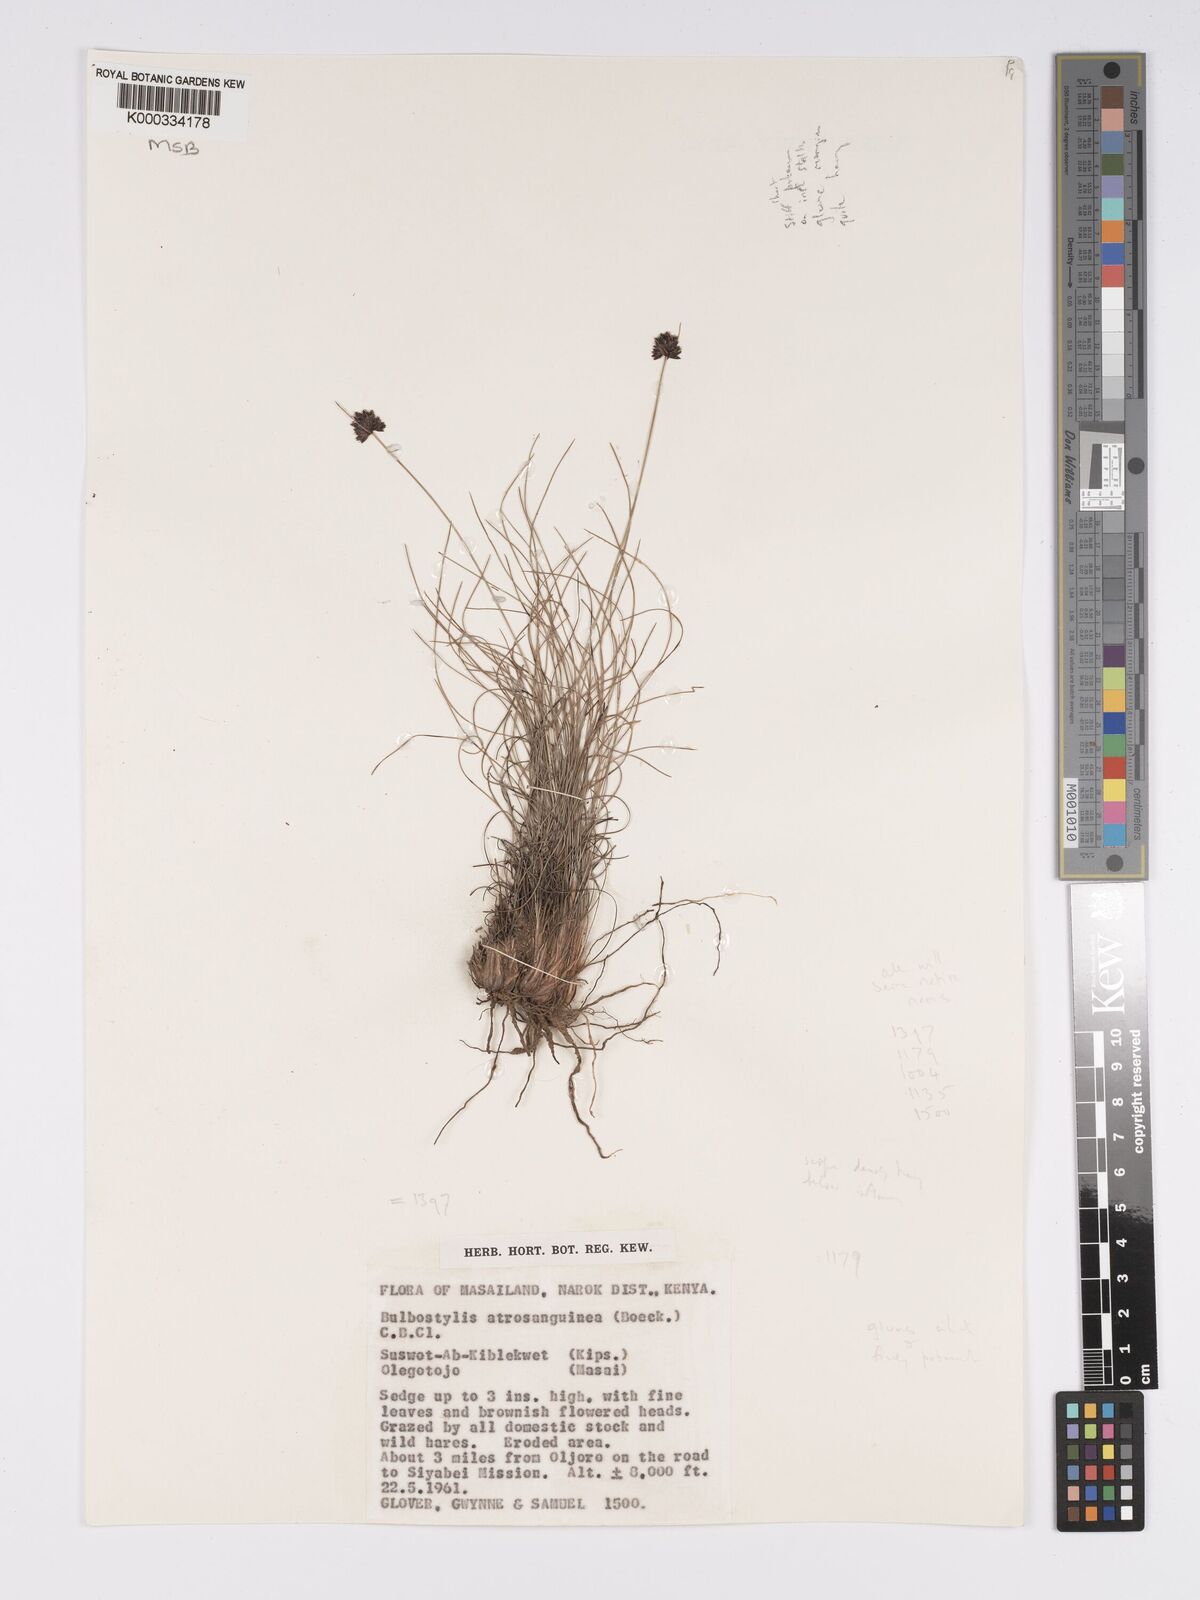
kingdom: Plantae
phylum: Tracheophyta
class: Liliopsida
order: Poales
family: Cyperaceae
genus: Bulbostylis
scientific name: Bulbostylis atrosanguinea
